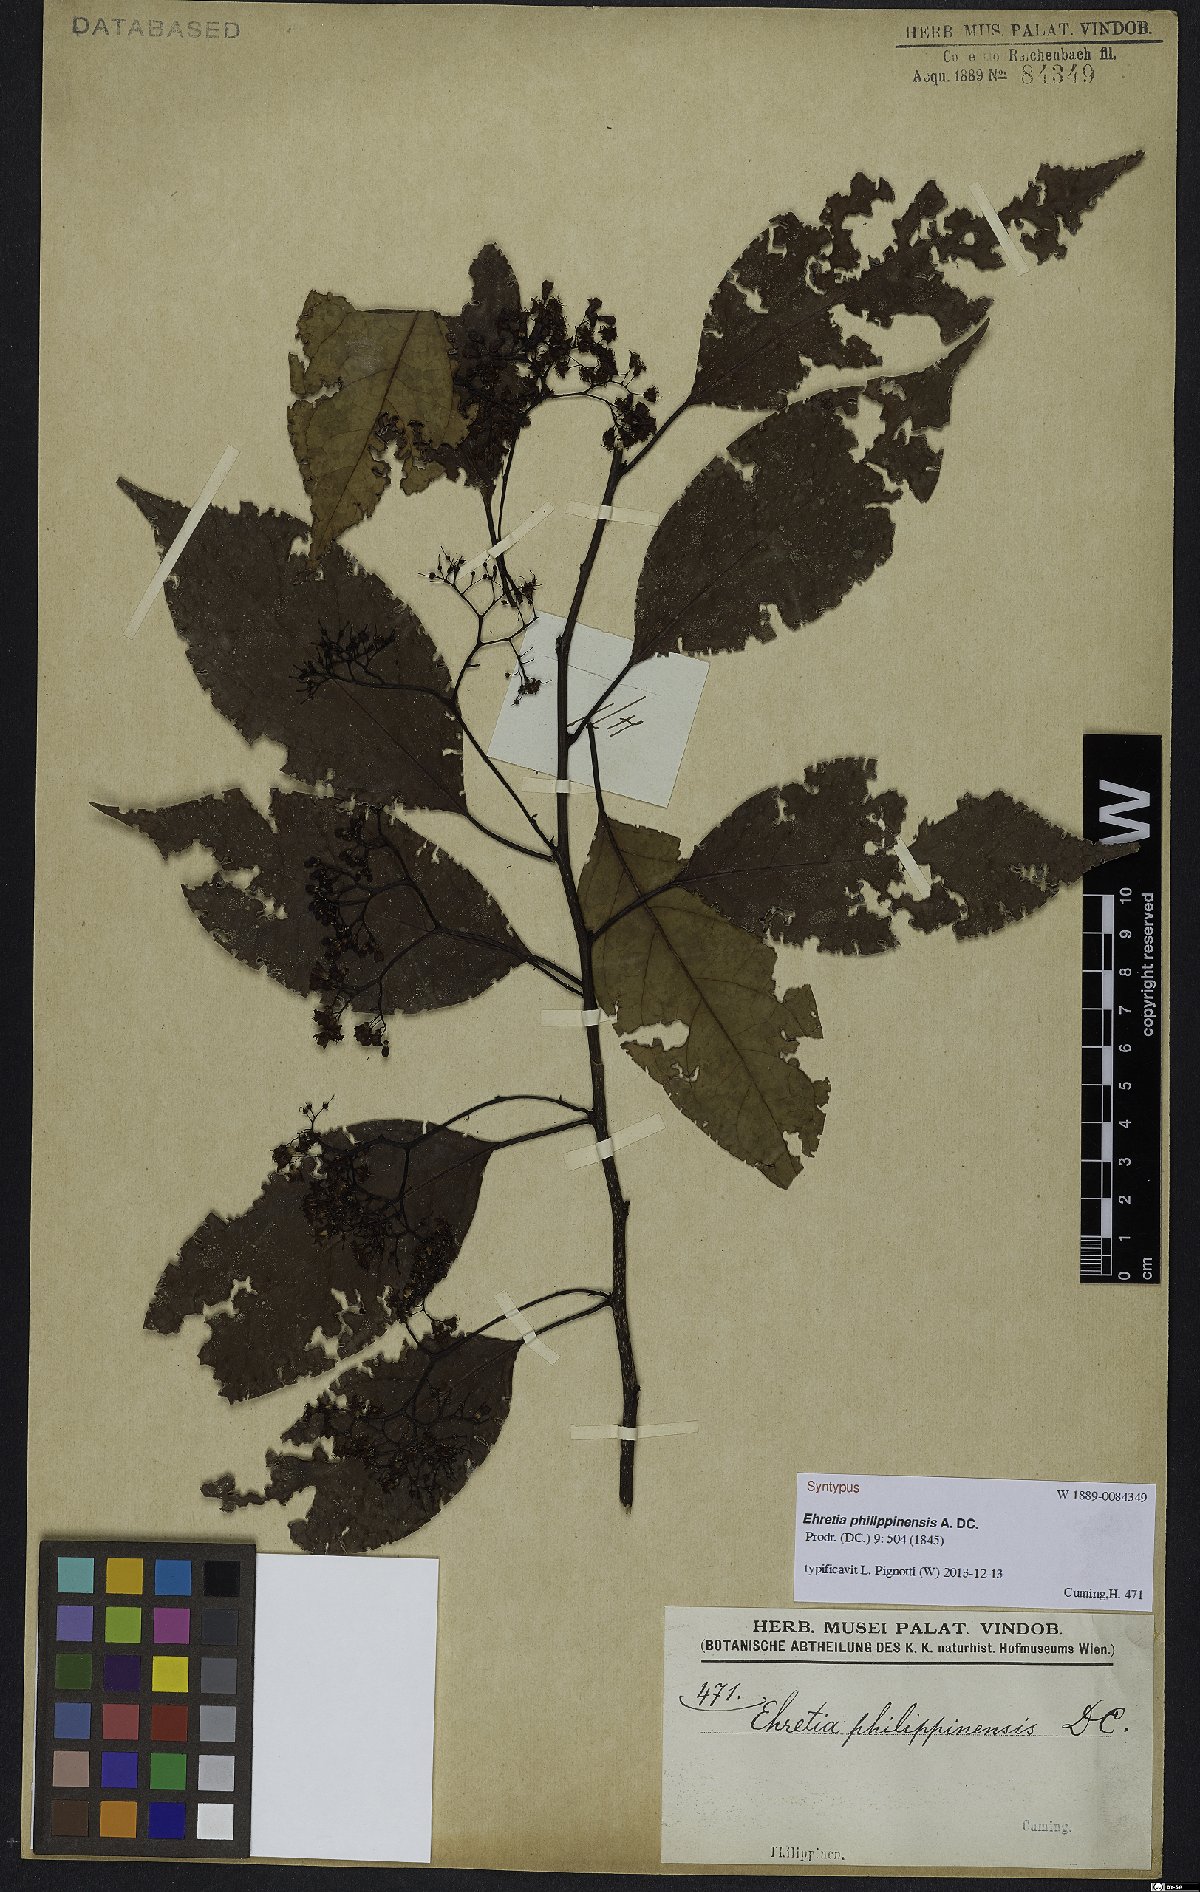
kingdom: Plantae
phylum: Tracheophyta
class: Magnoliopsida
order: Boraginales
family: Ehretiaceae
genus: Ehretia
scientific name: Ehretia philippinensis
